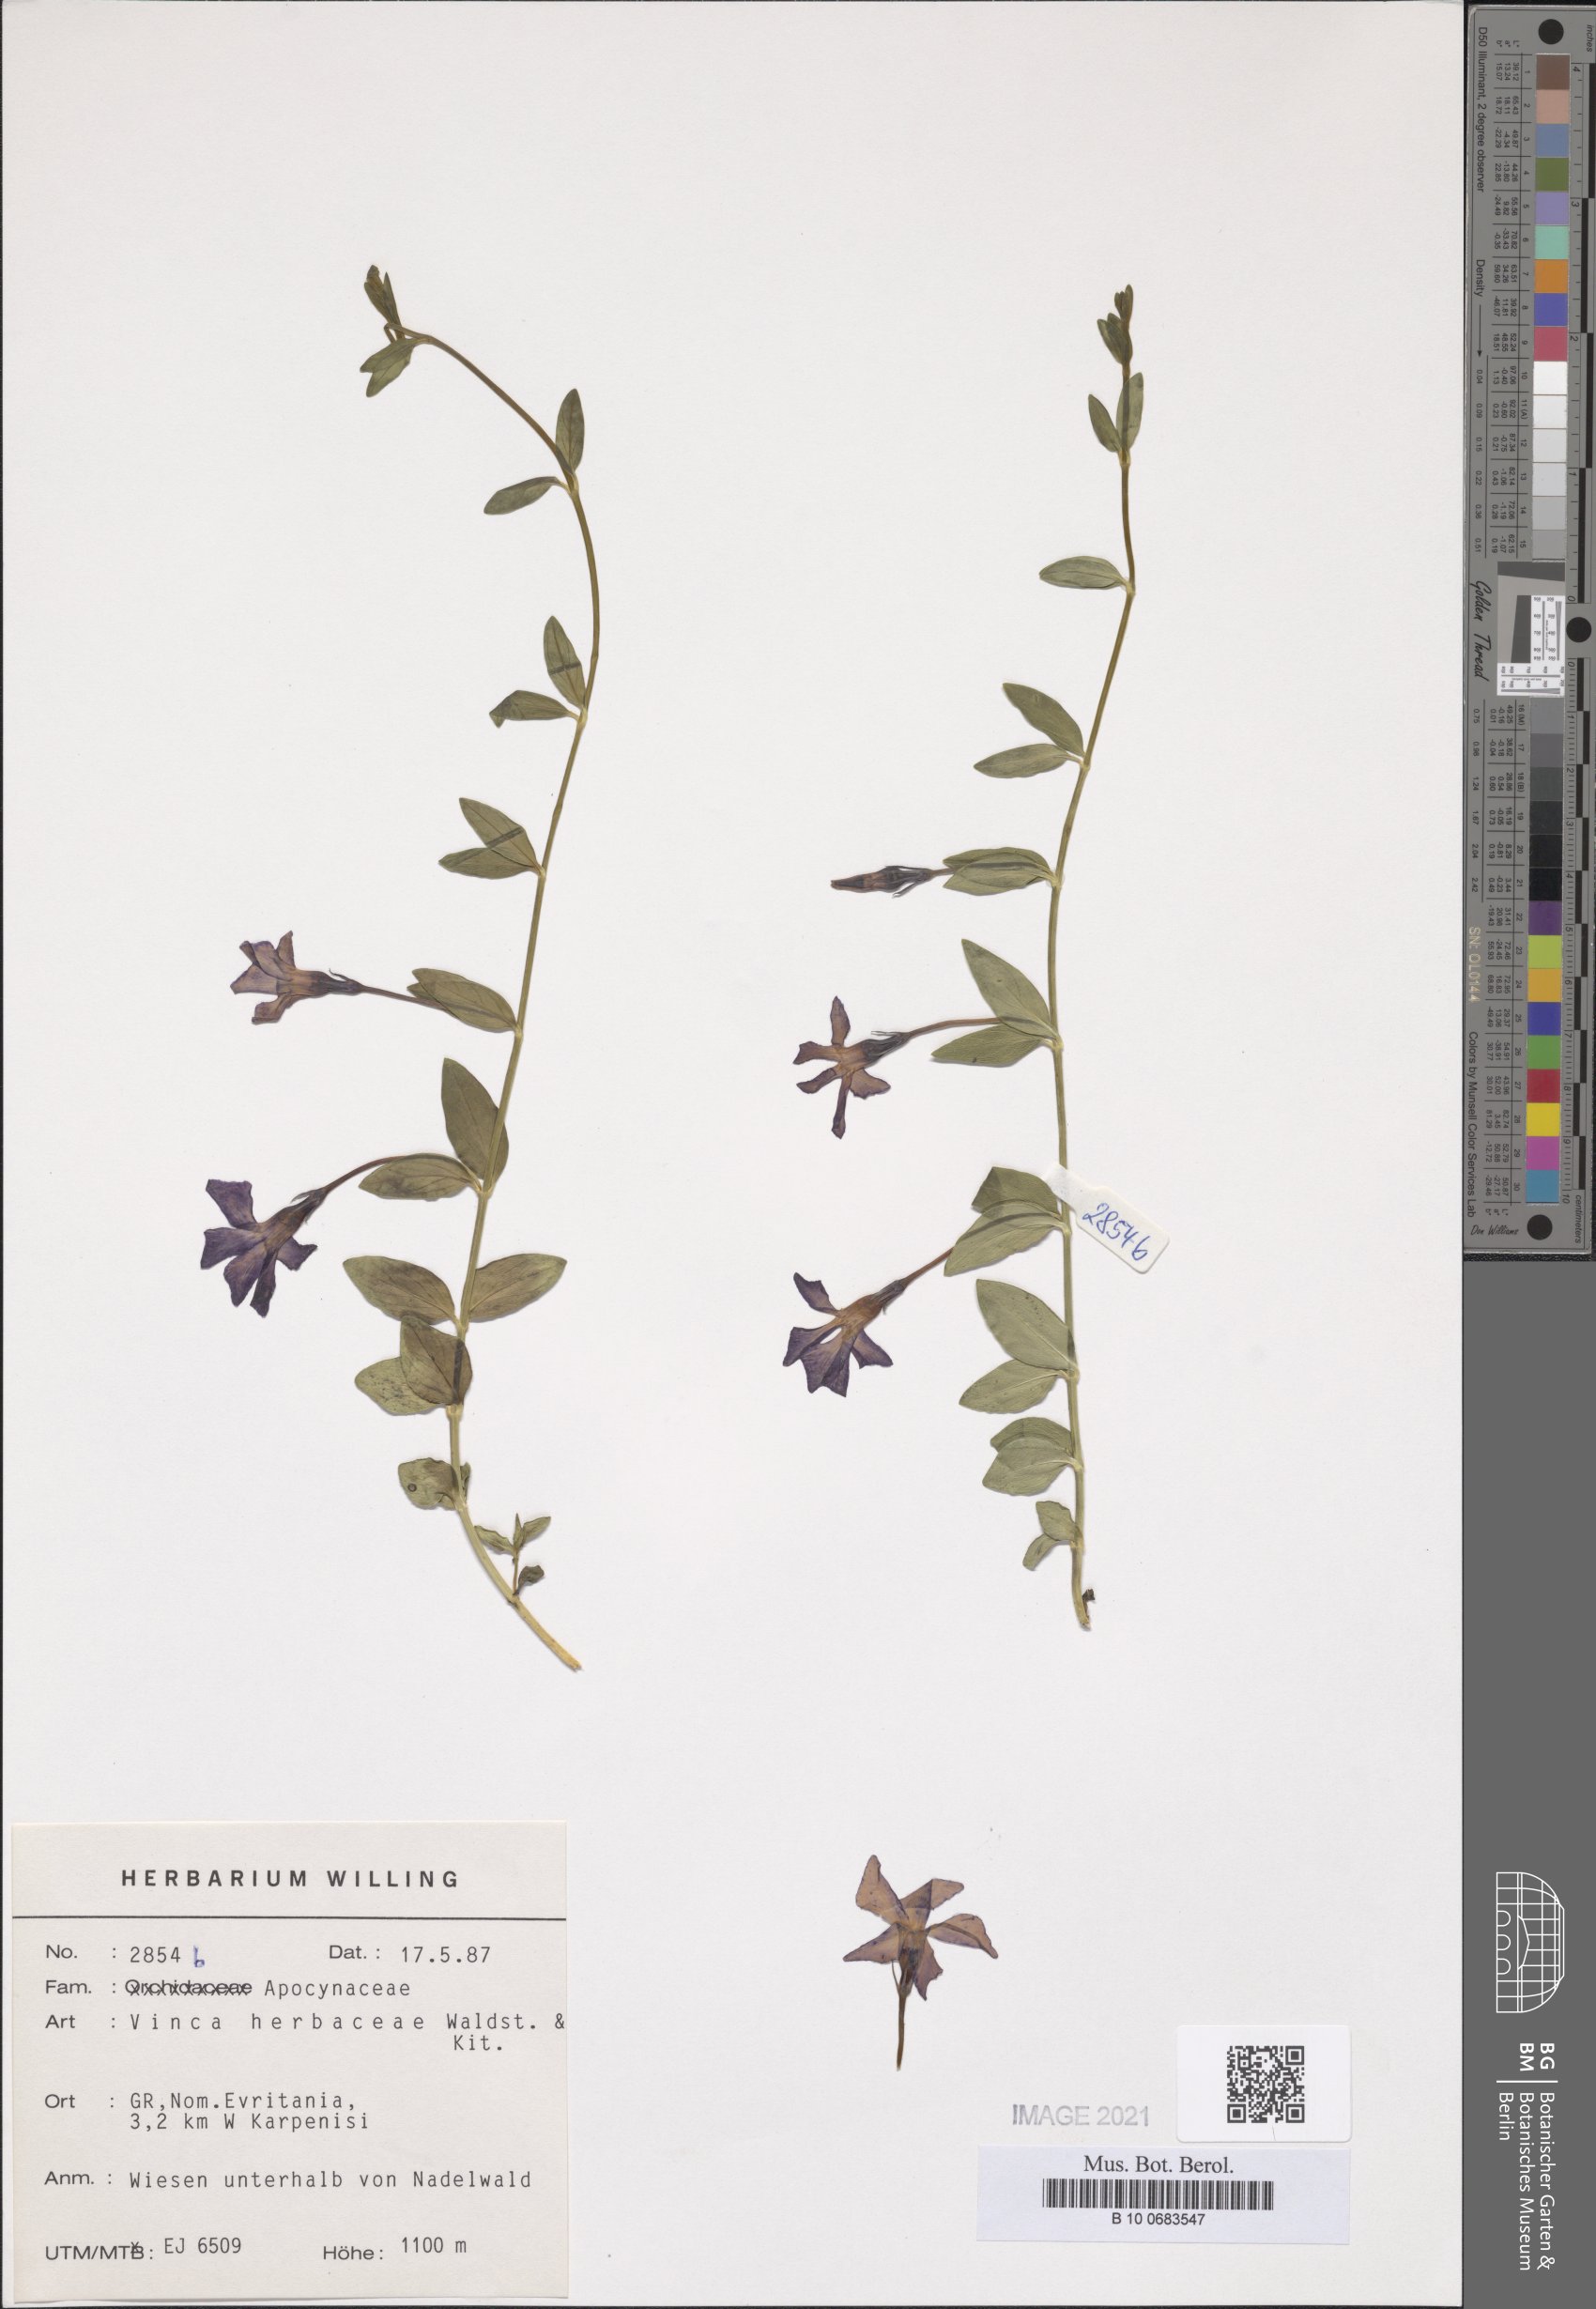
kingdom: Plantae
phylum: Tracheophyta
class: Magnoliopsida
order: Gentianales
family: Apocynaceae
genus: Vinca
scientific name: Vinca herbacea
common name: Herbaceous periwinkle
